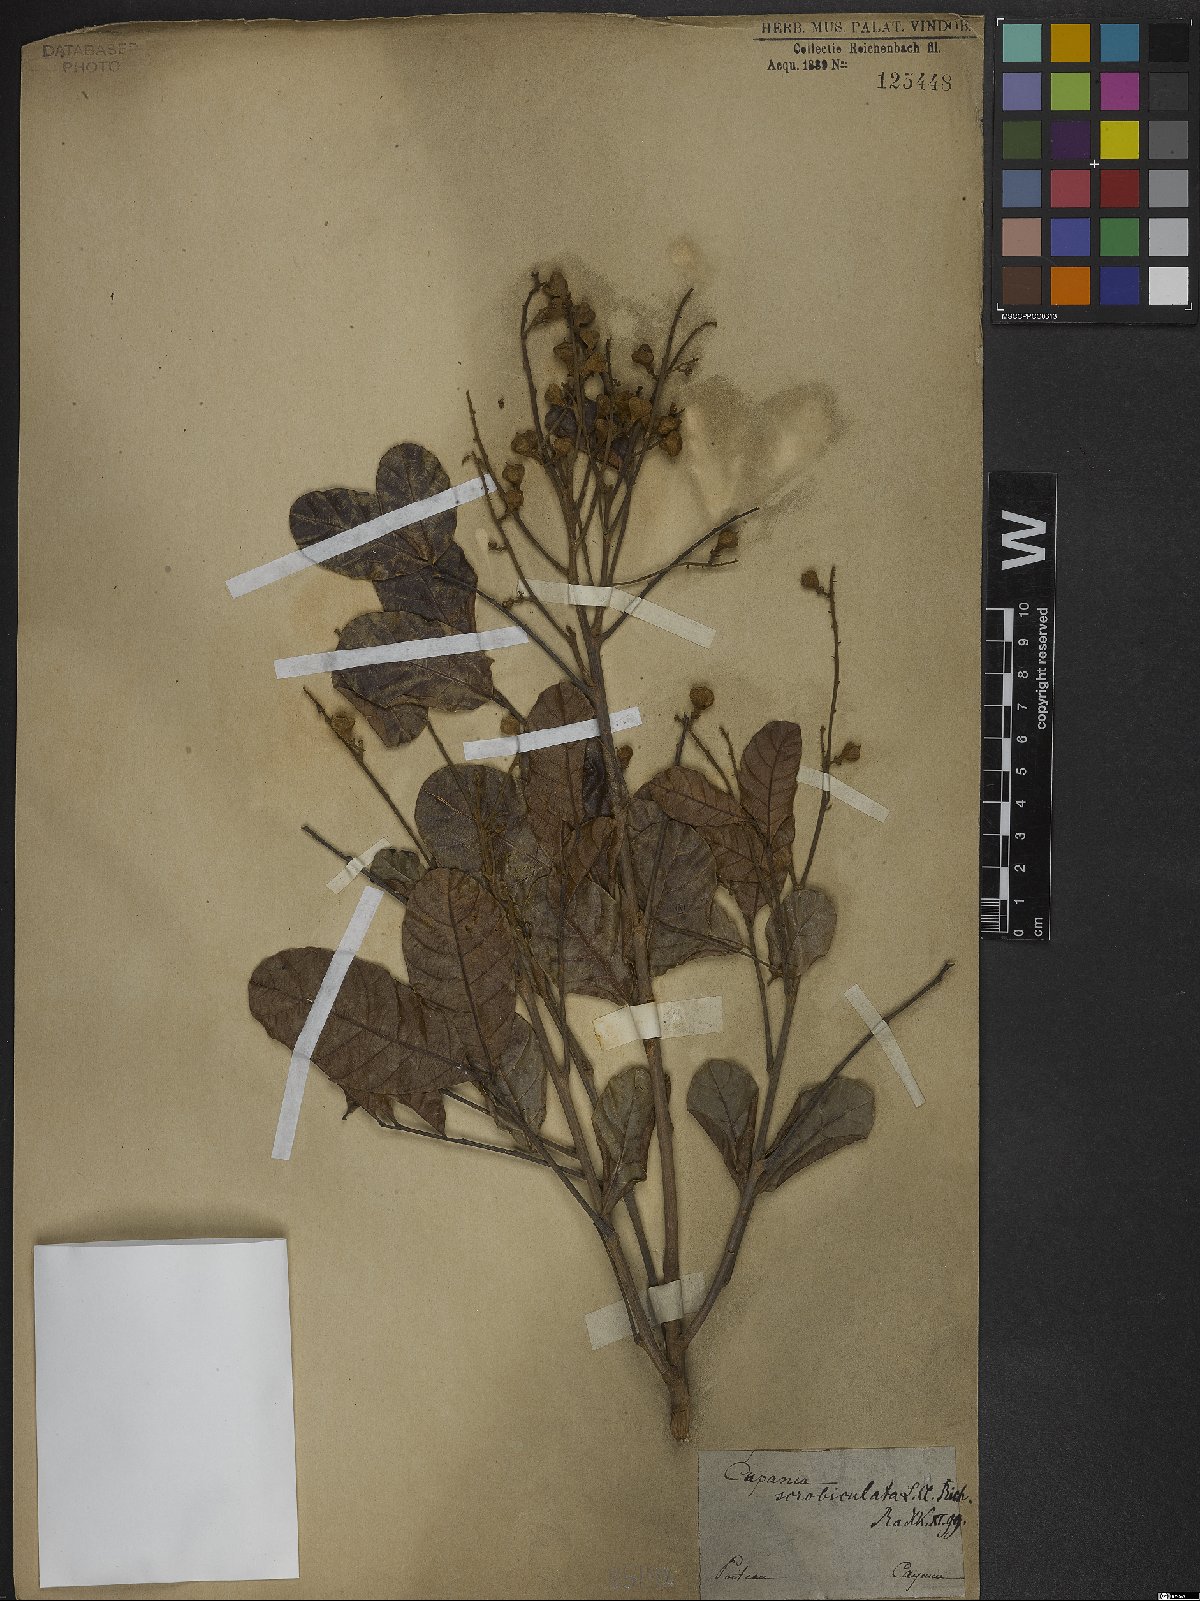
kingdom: Plantae
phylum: Tracheophyta
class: Magnoliopsida
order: Sapindales
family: Sapindaceae
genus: Cupania
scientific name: Cupania scrobiculata
